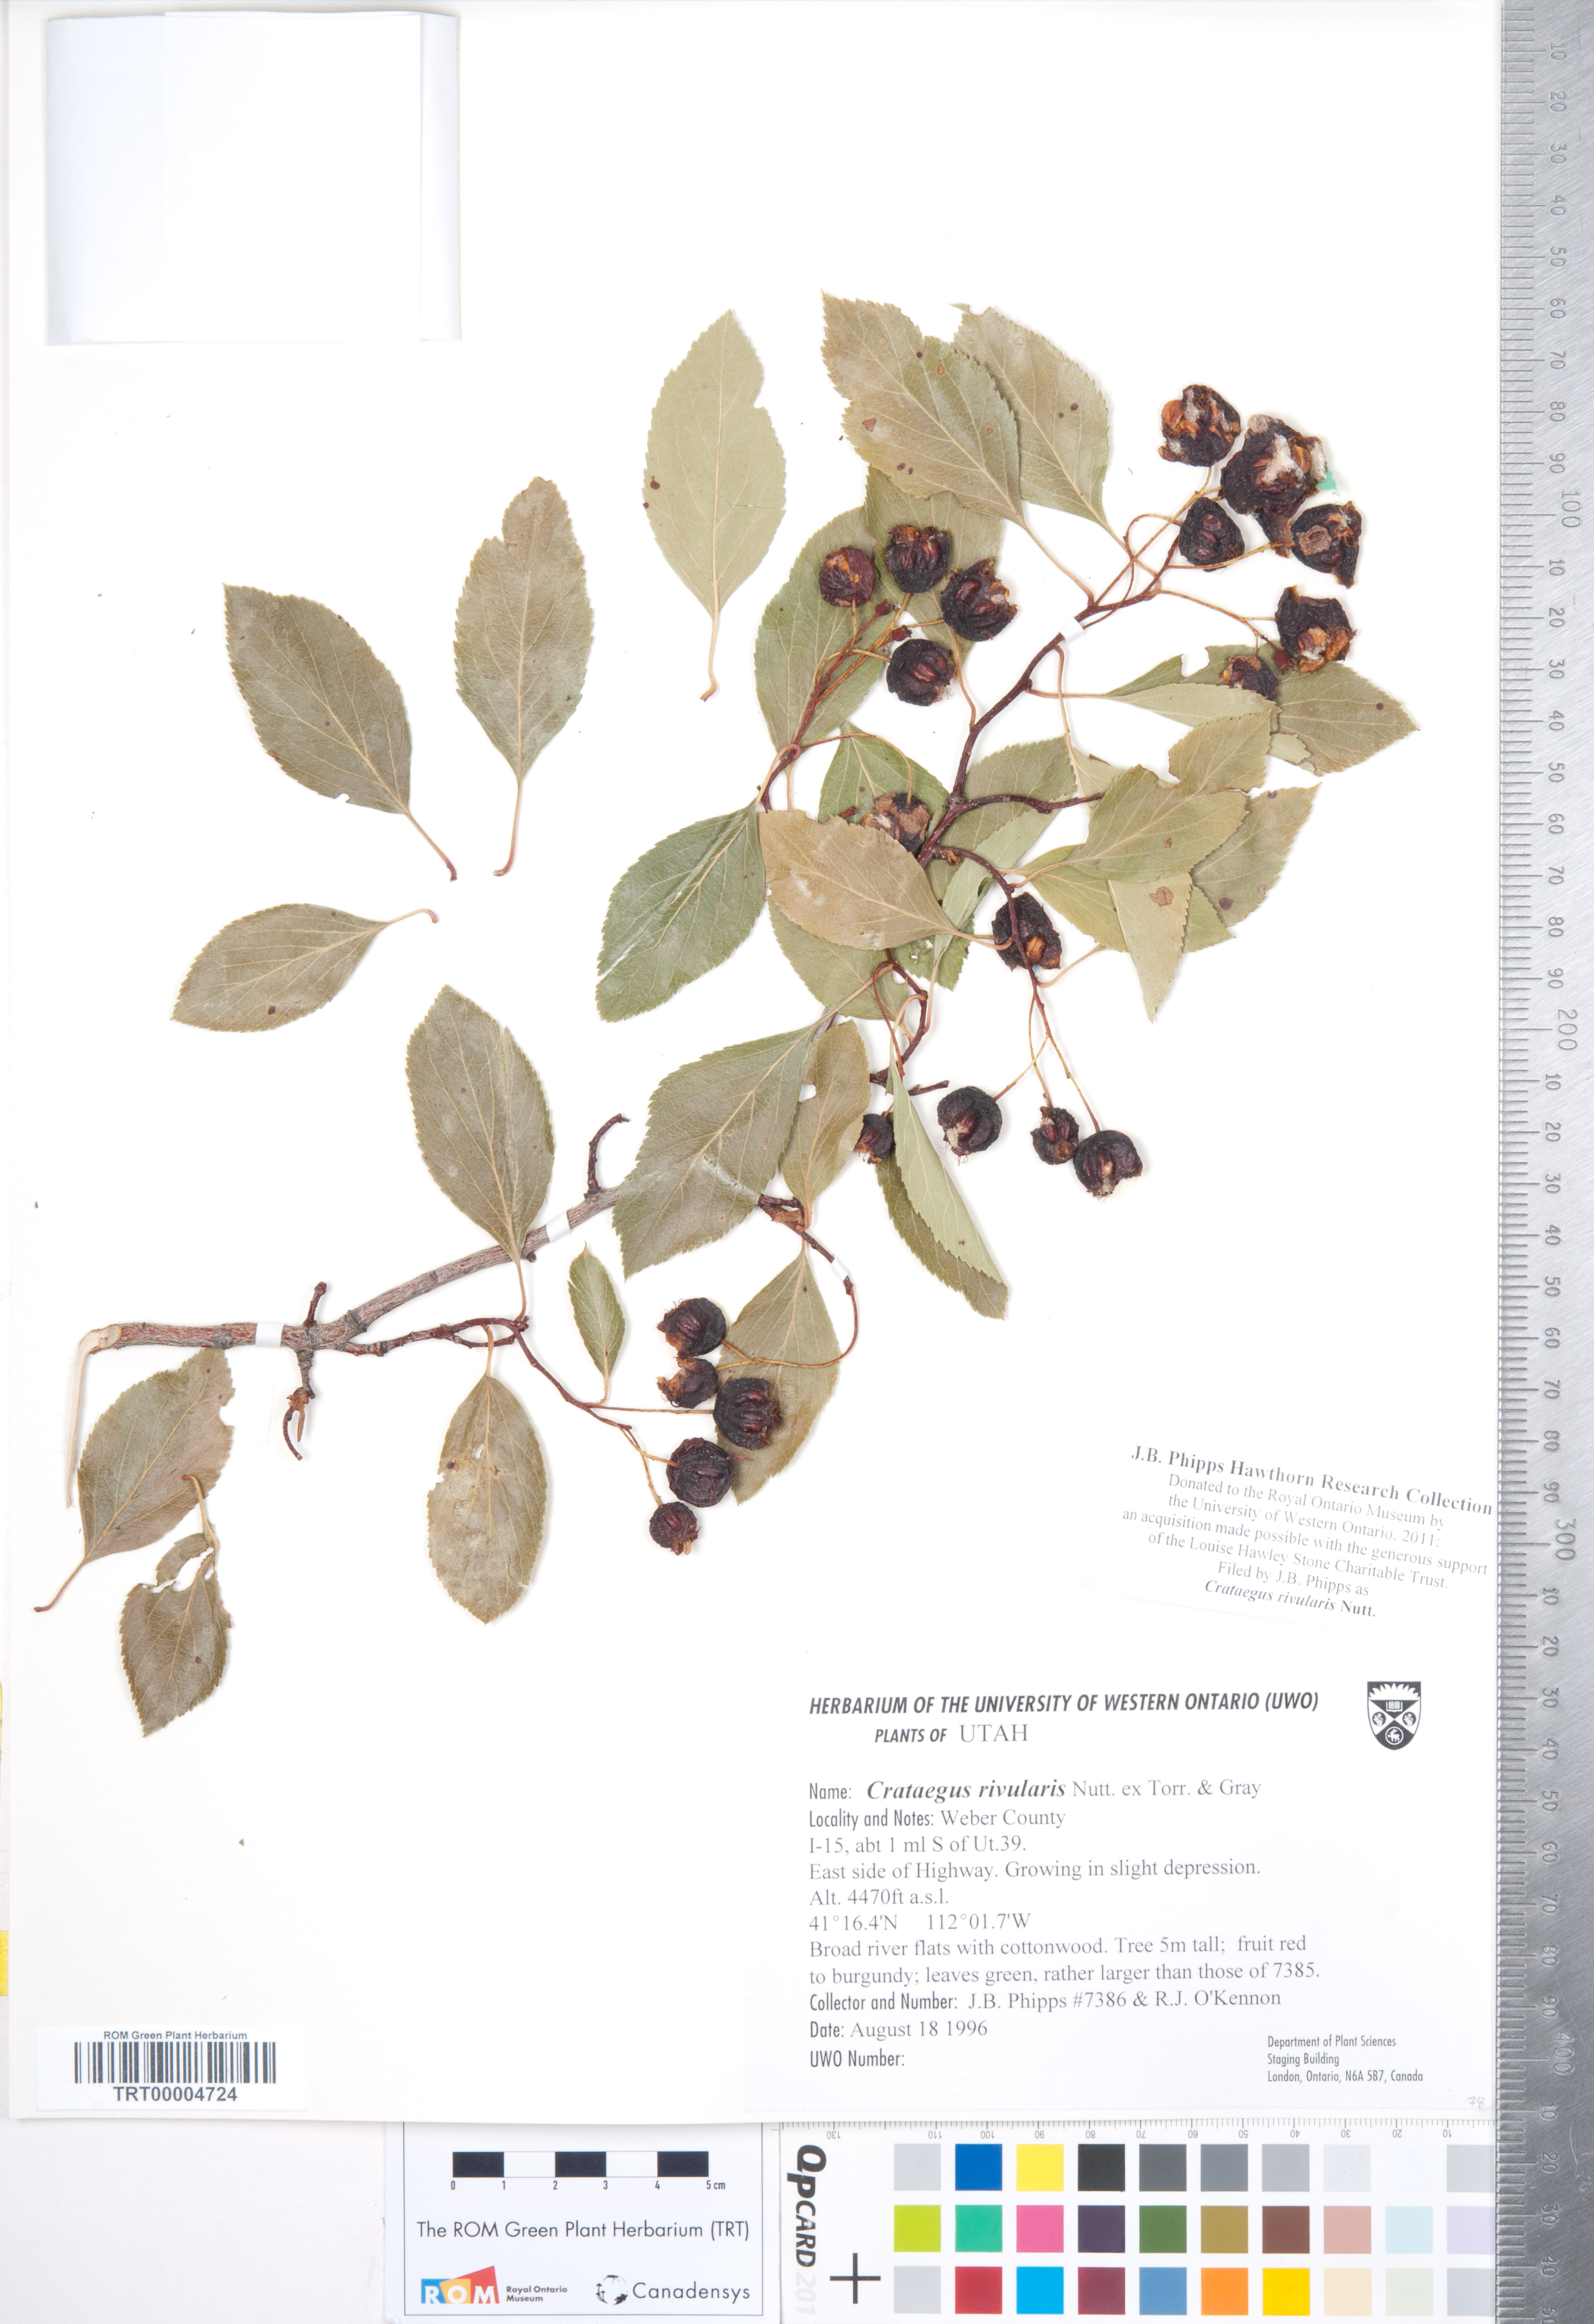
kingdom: Plantae
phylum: Tracheophyta
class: Magnoliopsida
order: Rosales
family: Rosaceae
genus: Crataegus
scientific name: Crataegus rivularis
